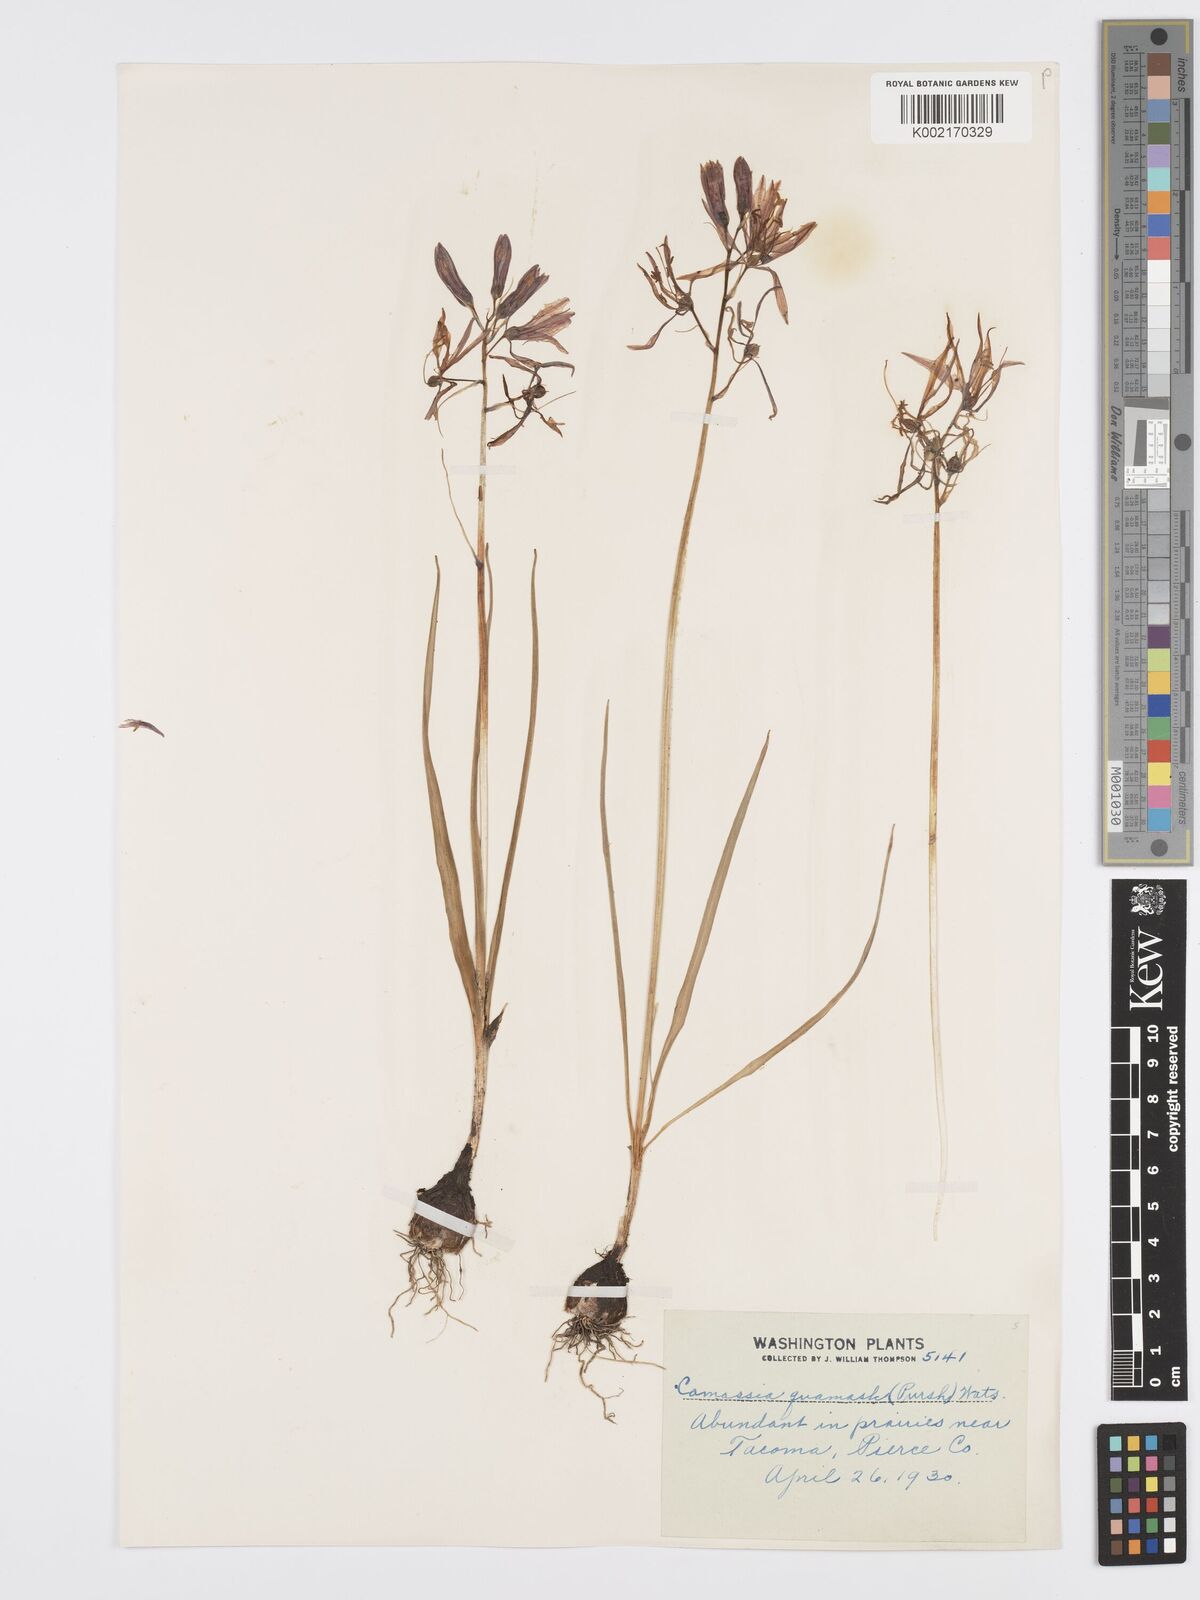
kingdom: Plantae
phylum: Tracheophyta
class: Liliopsida
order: Asparagales
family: Asparagaceae
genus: Camassia
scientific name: Camassia quamash
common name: Common camas
